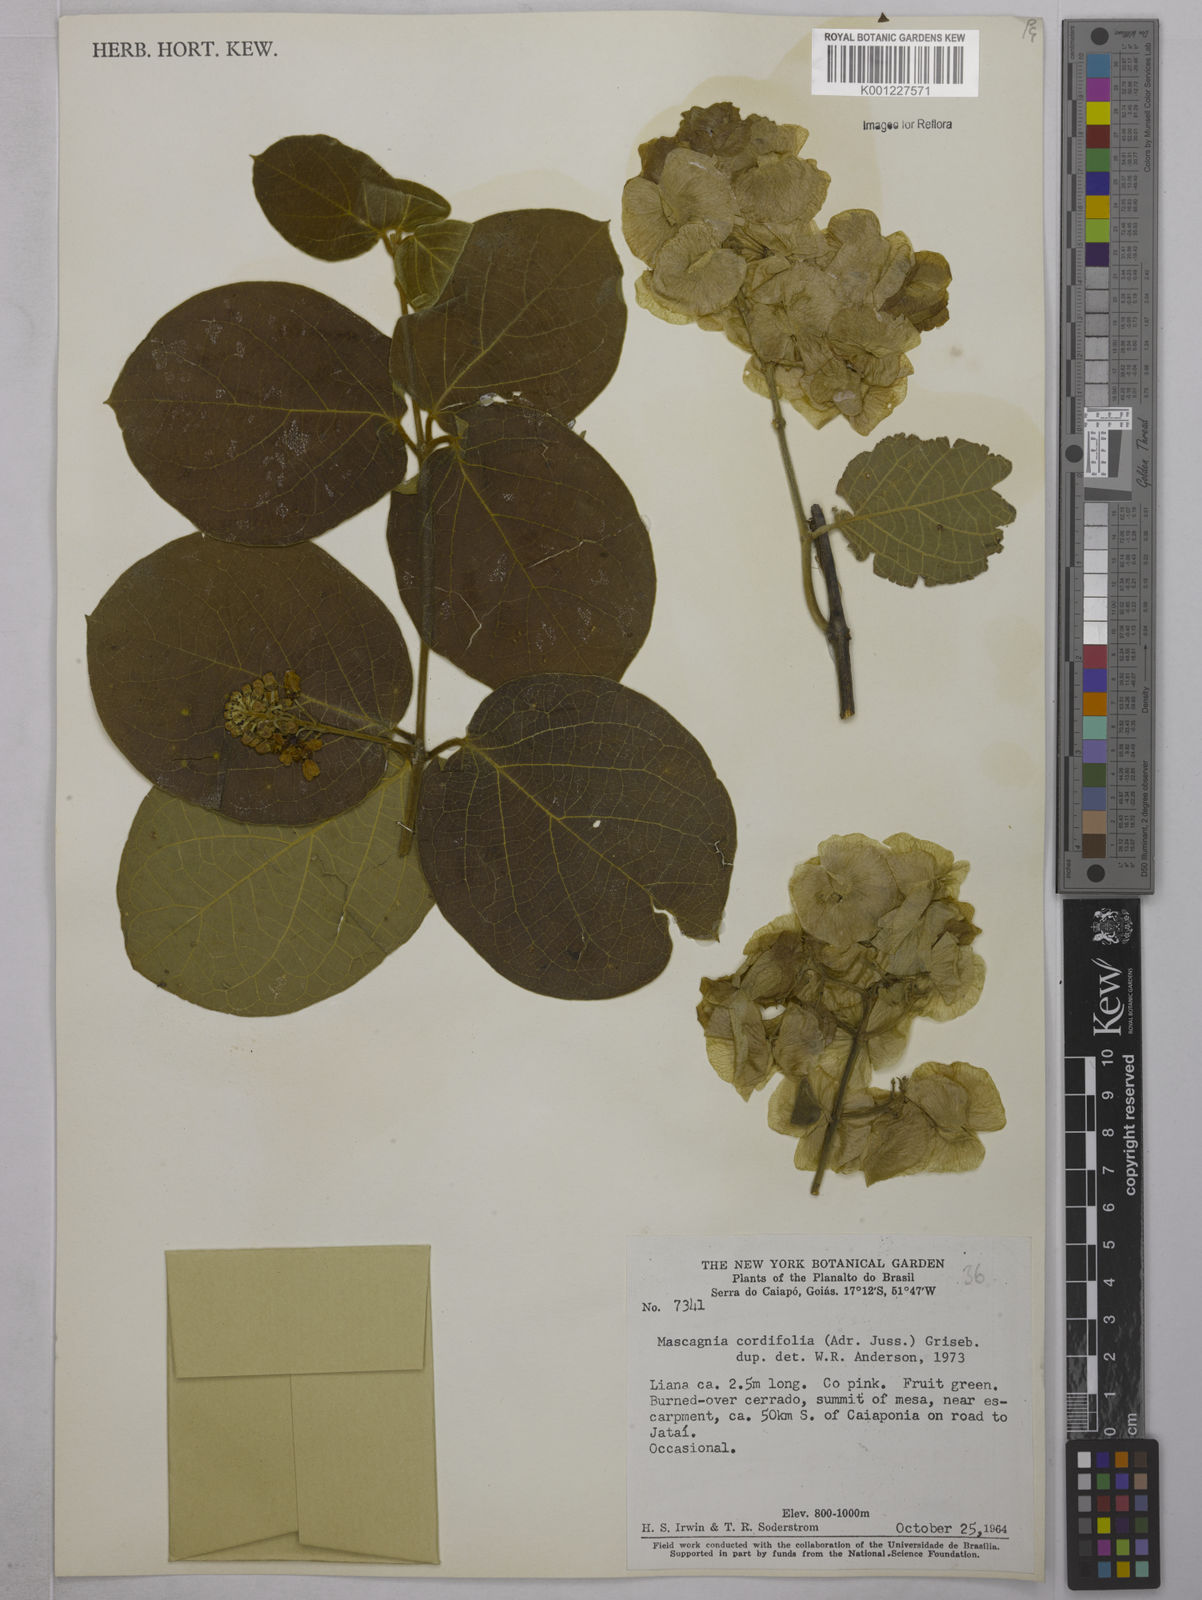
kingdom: Plantae
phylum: Tracheophyta
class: Magnoliopsida
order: Malpighiales
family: Malpighiaceae
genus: Mascagnia
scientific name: Mascagnia cordifolia
